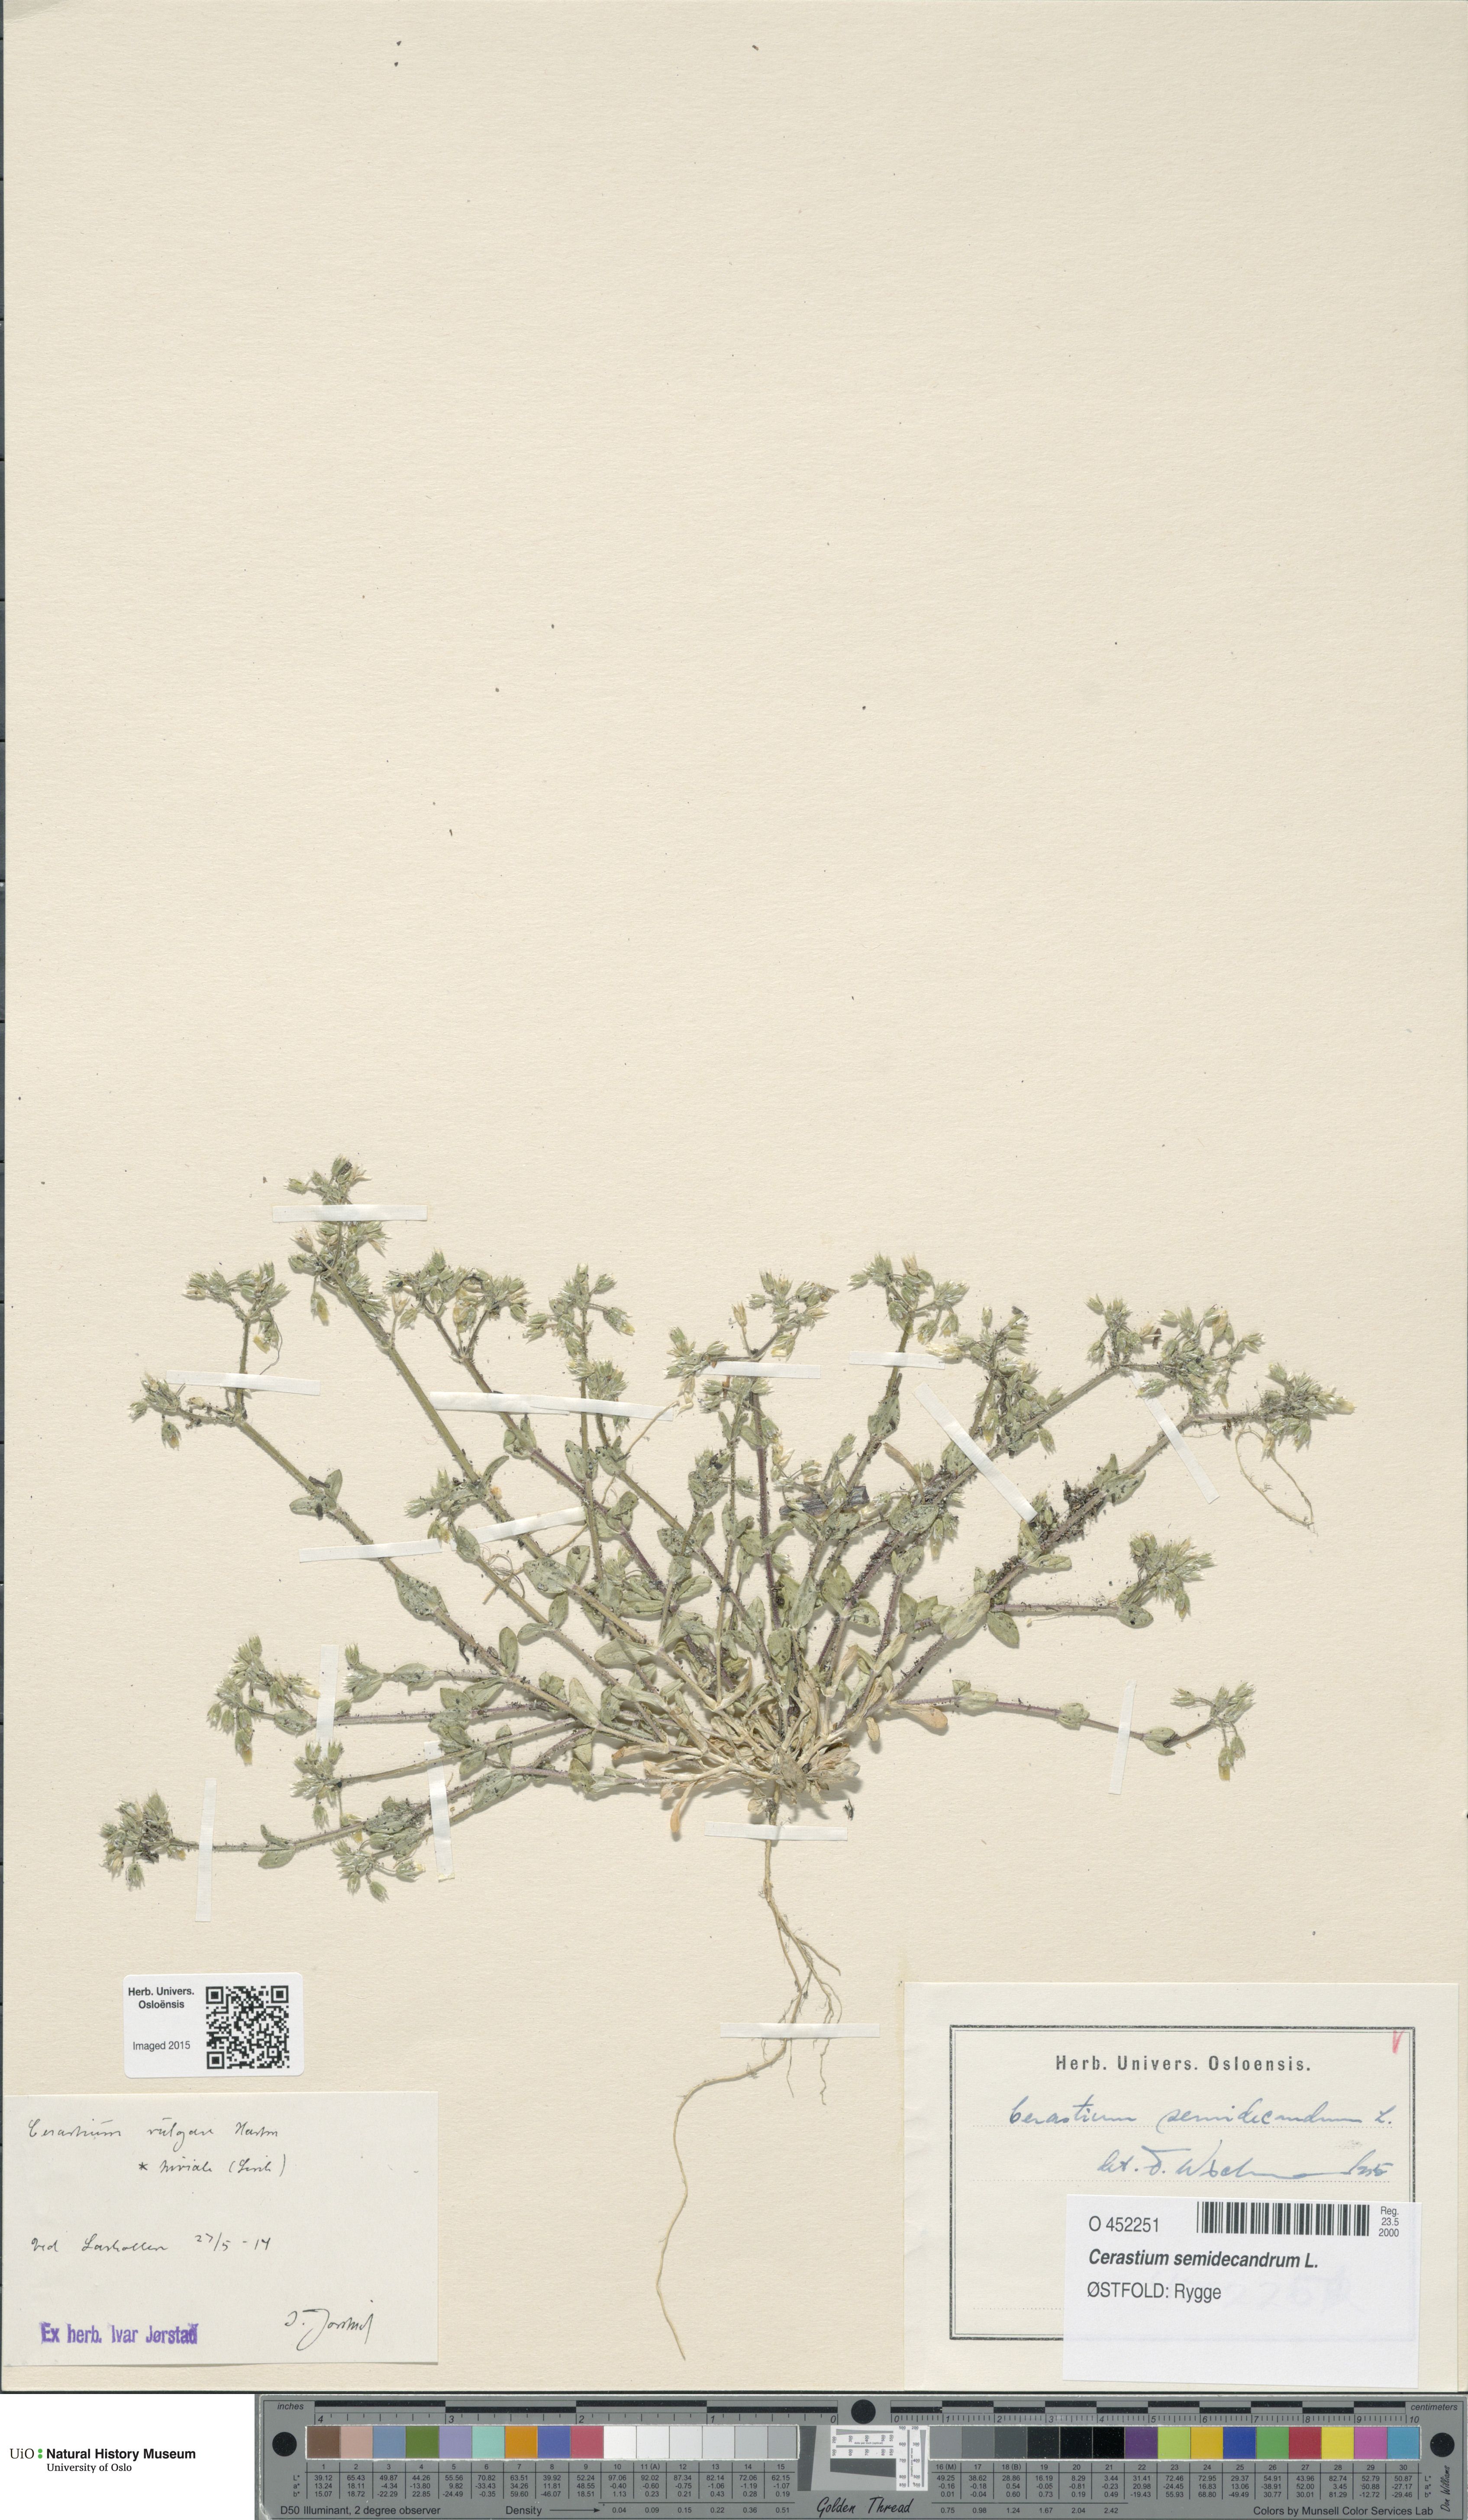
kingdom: Plantae
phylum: Tracheophyta
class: Magnoliopsida
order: Caryophyllales
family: Caryophyllaceae
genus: Cerastium
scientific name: Cerastium semidecandrum
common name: Little mouse-ear
